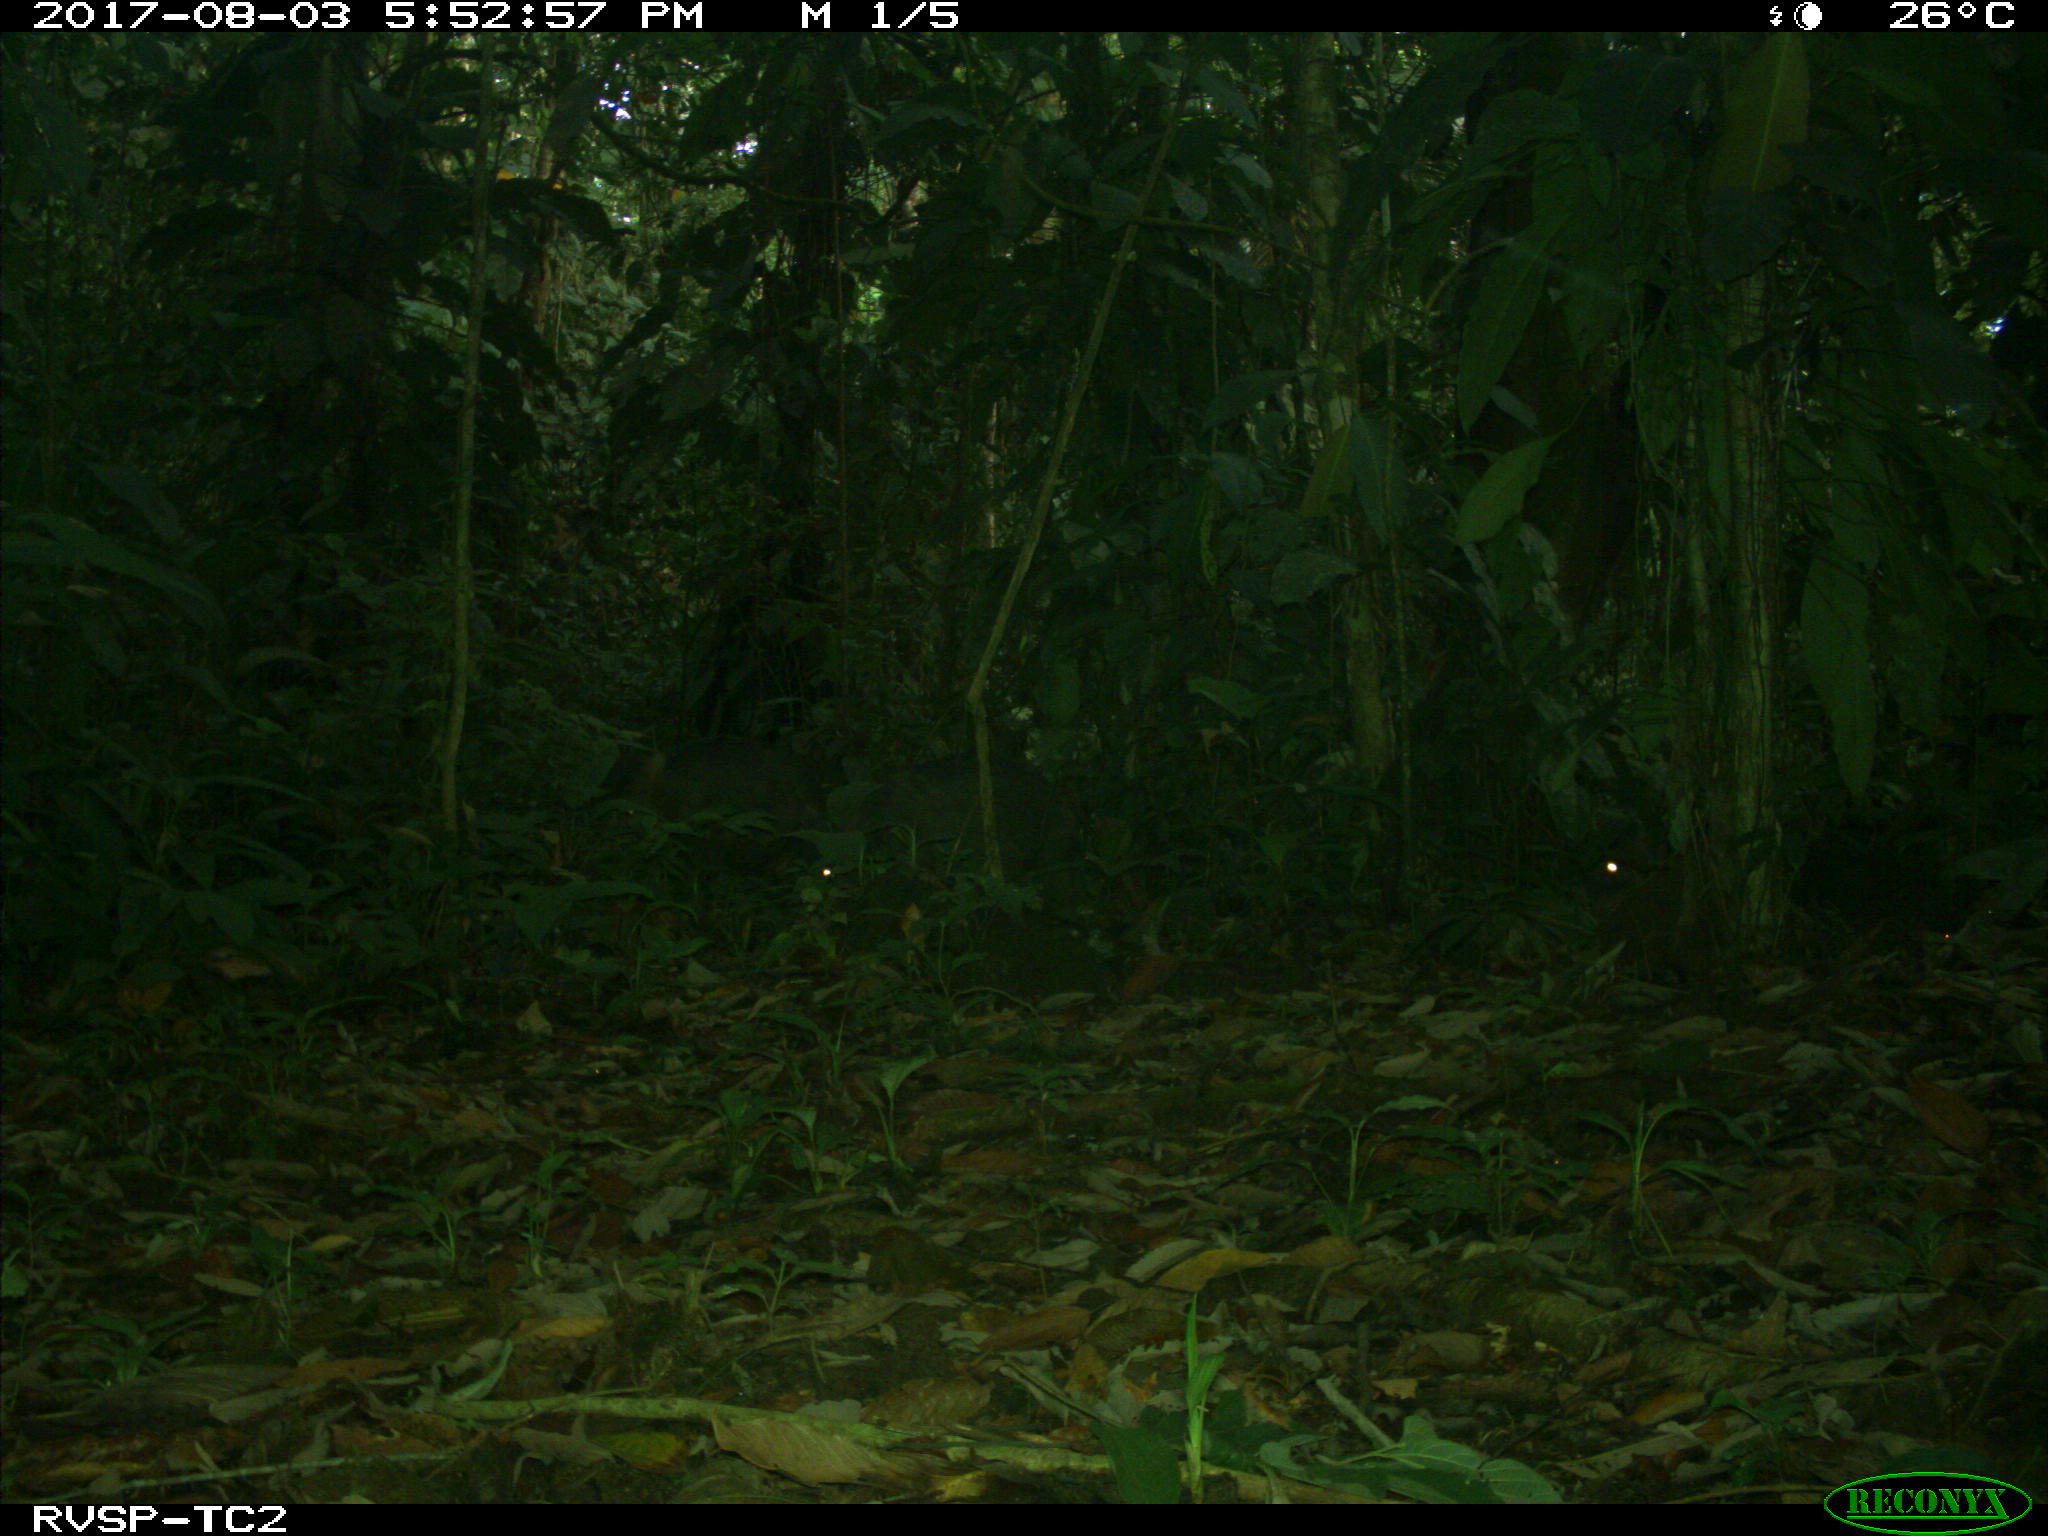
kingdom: Animalia
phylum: Chordata
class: Mammalia
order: Artiodactyla
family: Tayassuidae
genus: Tayassu
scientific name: Tayassu pecari
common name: White-lipped peccary
